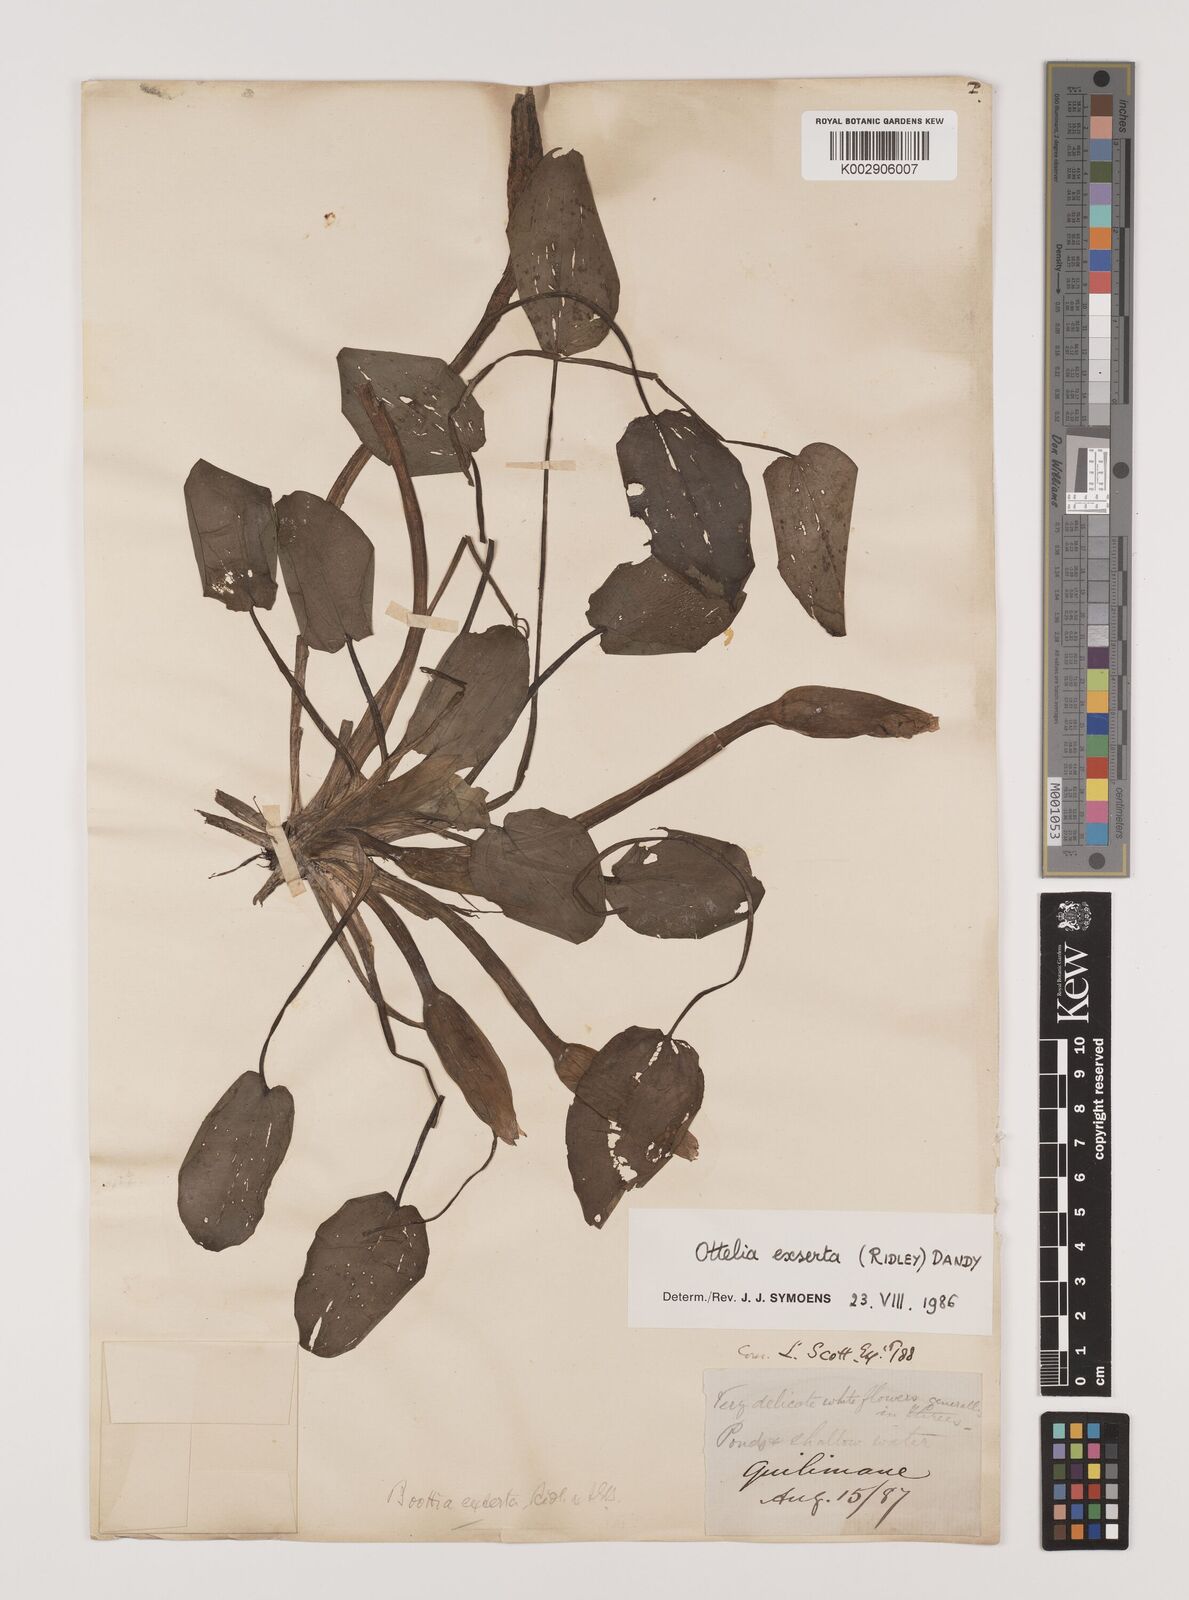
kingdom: Plantae
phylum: Tracheophyta
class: Liliopsida
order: Alismatales
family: Hydrocharitaceae
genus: Ottelia
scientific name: Ottelia exserta
